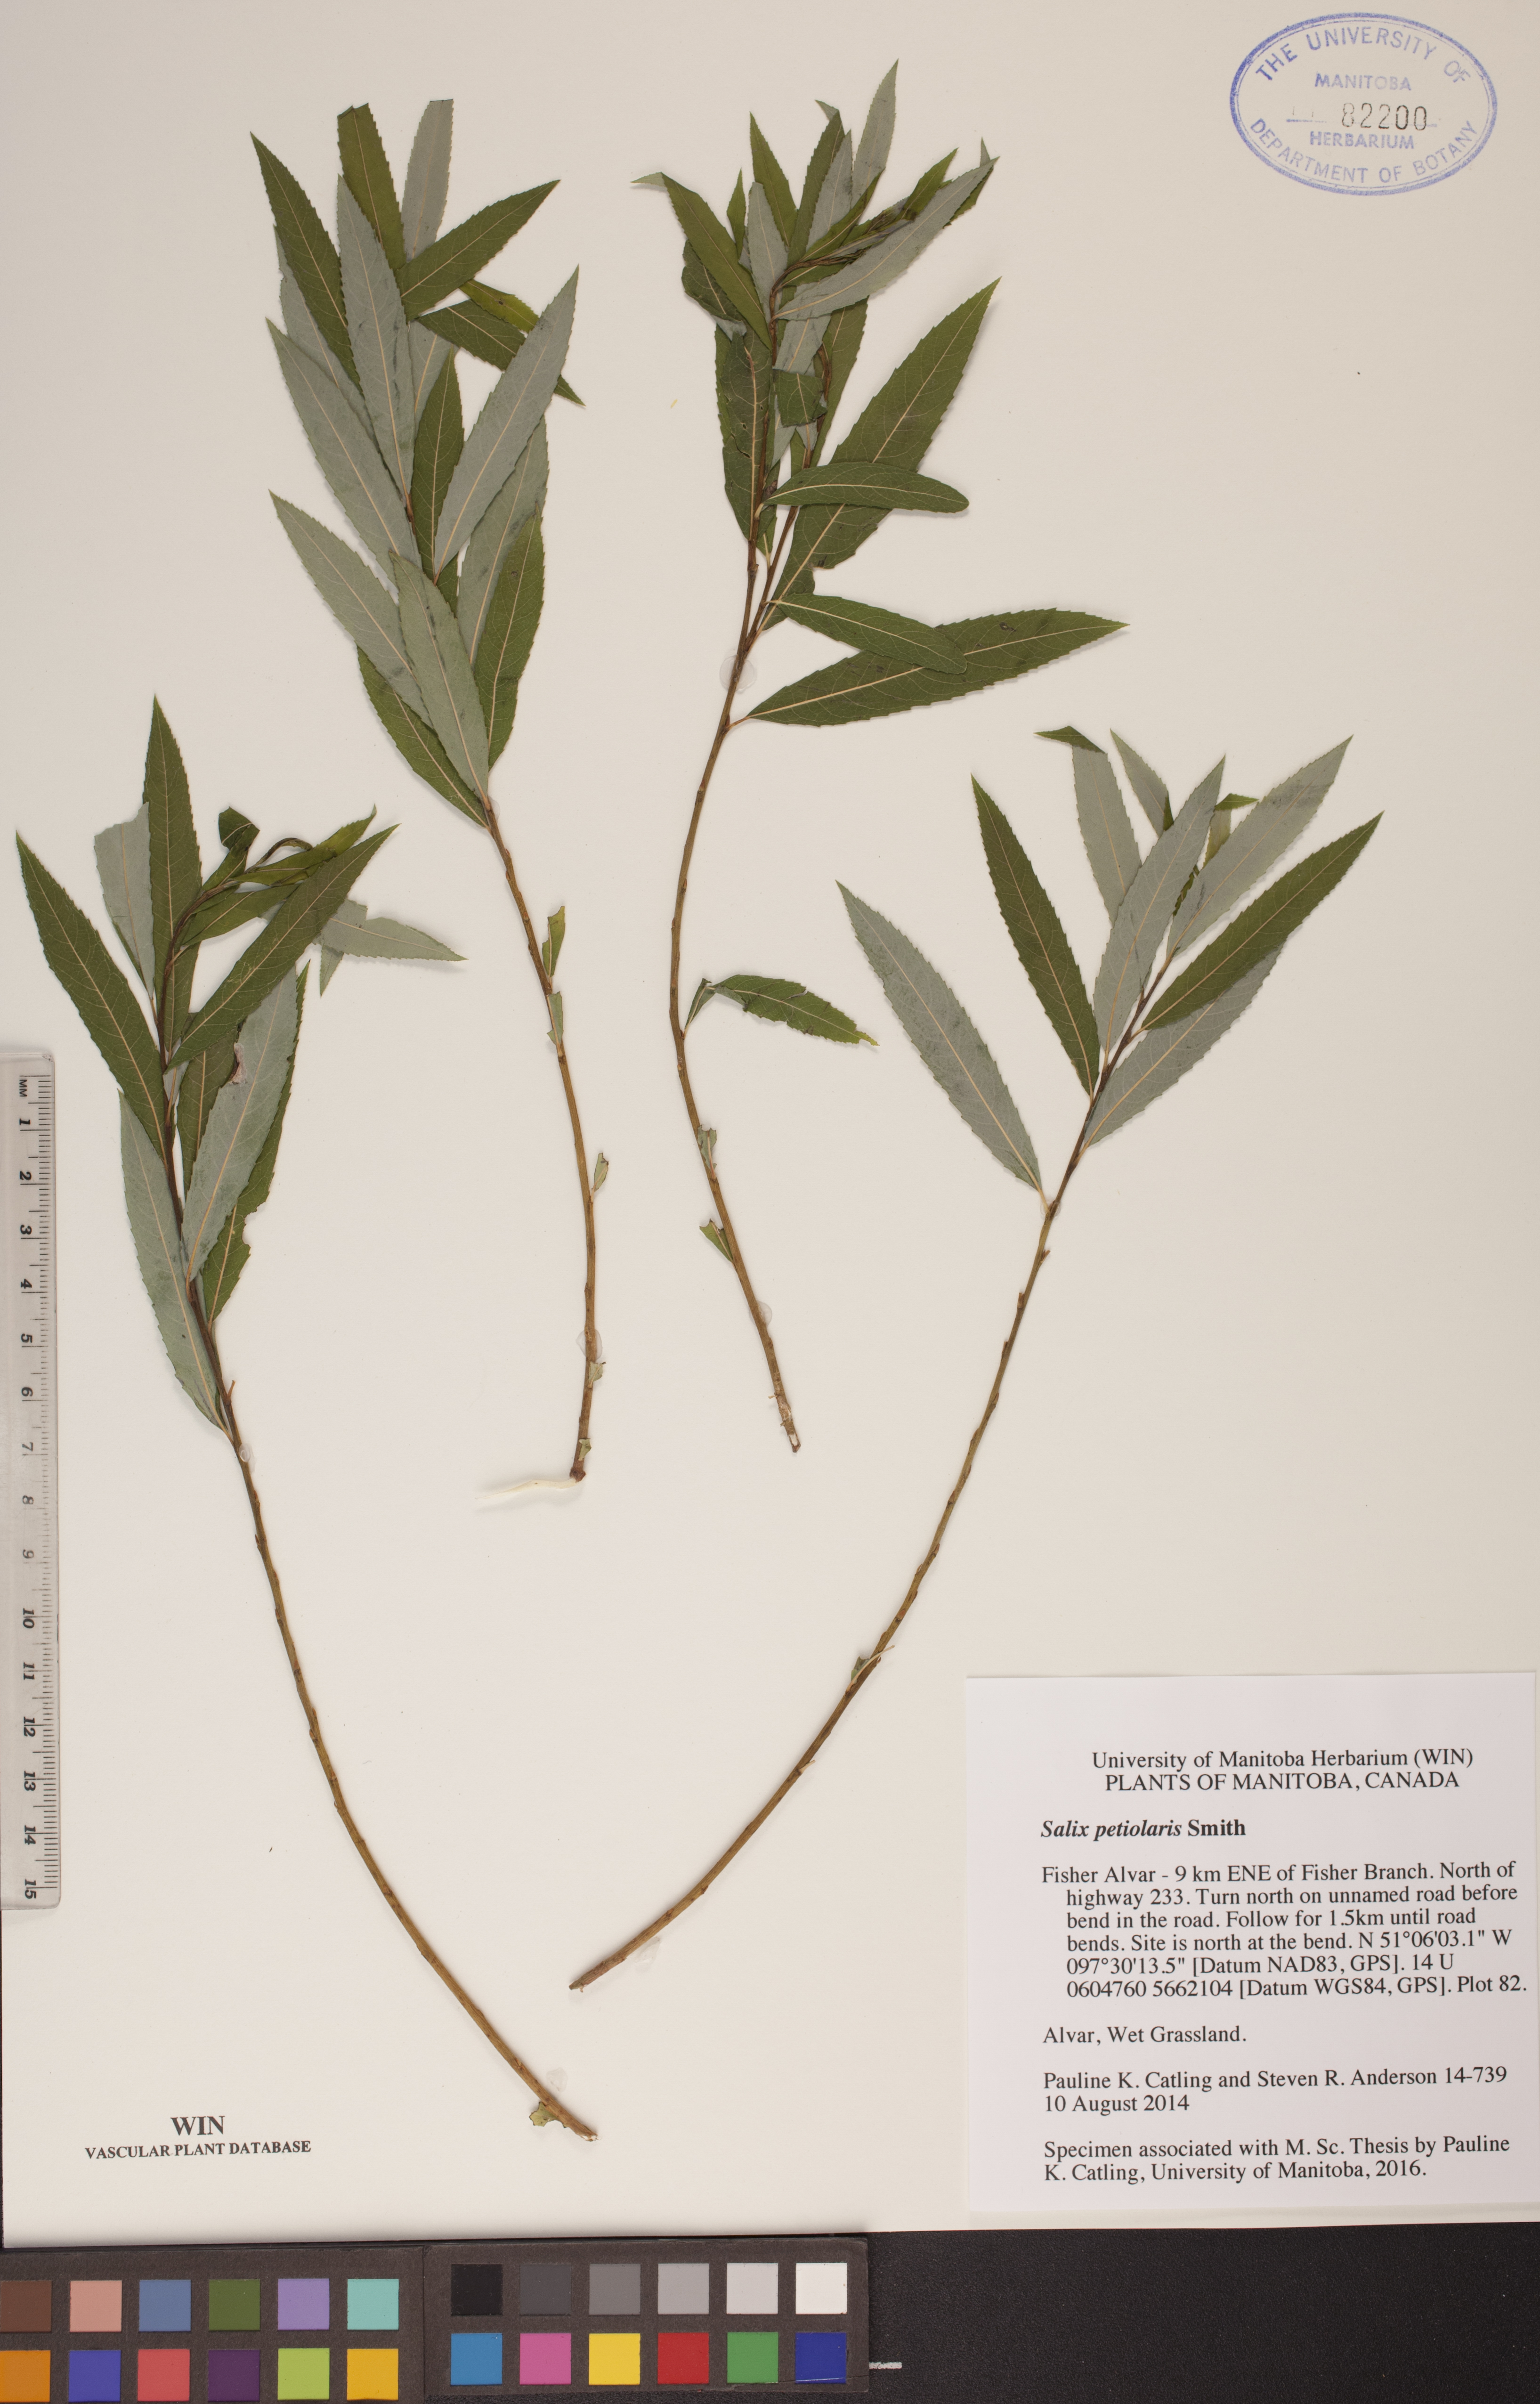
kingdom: Plantae
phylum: Tracheophyta
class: Magnoliopsida
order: Malpighiales
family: Salicaceae
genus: Salix
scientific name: Salix petiolaris
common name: Slender willow
